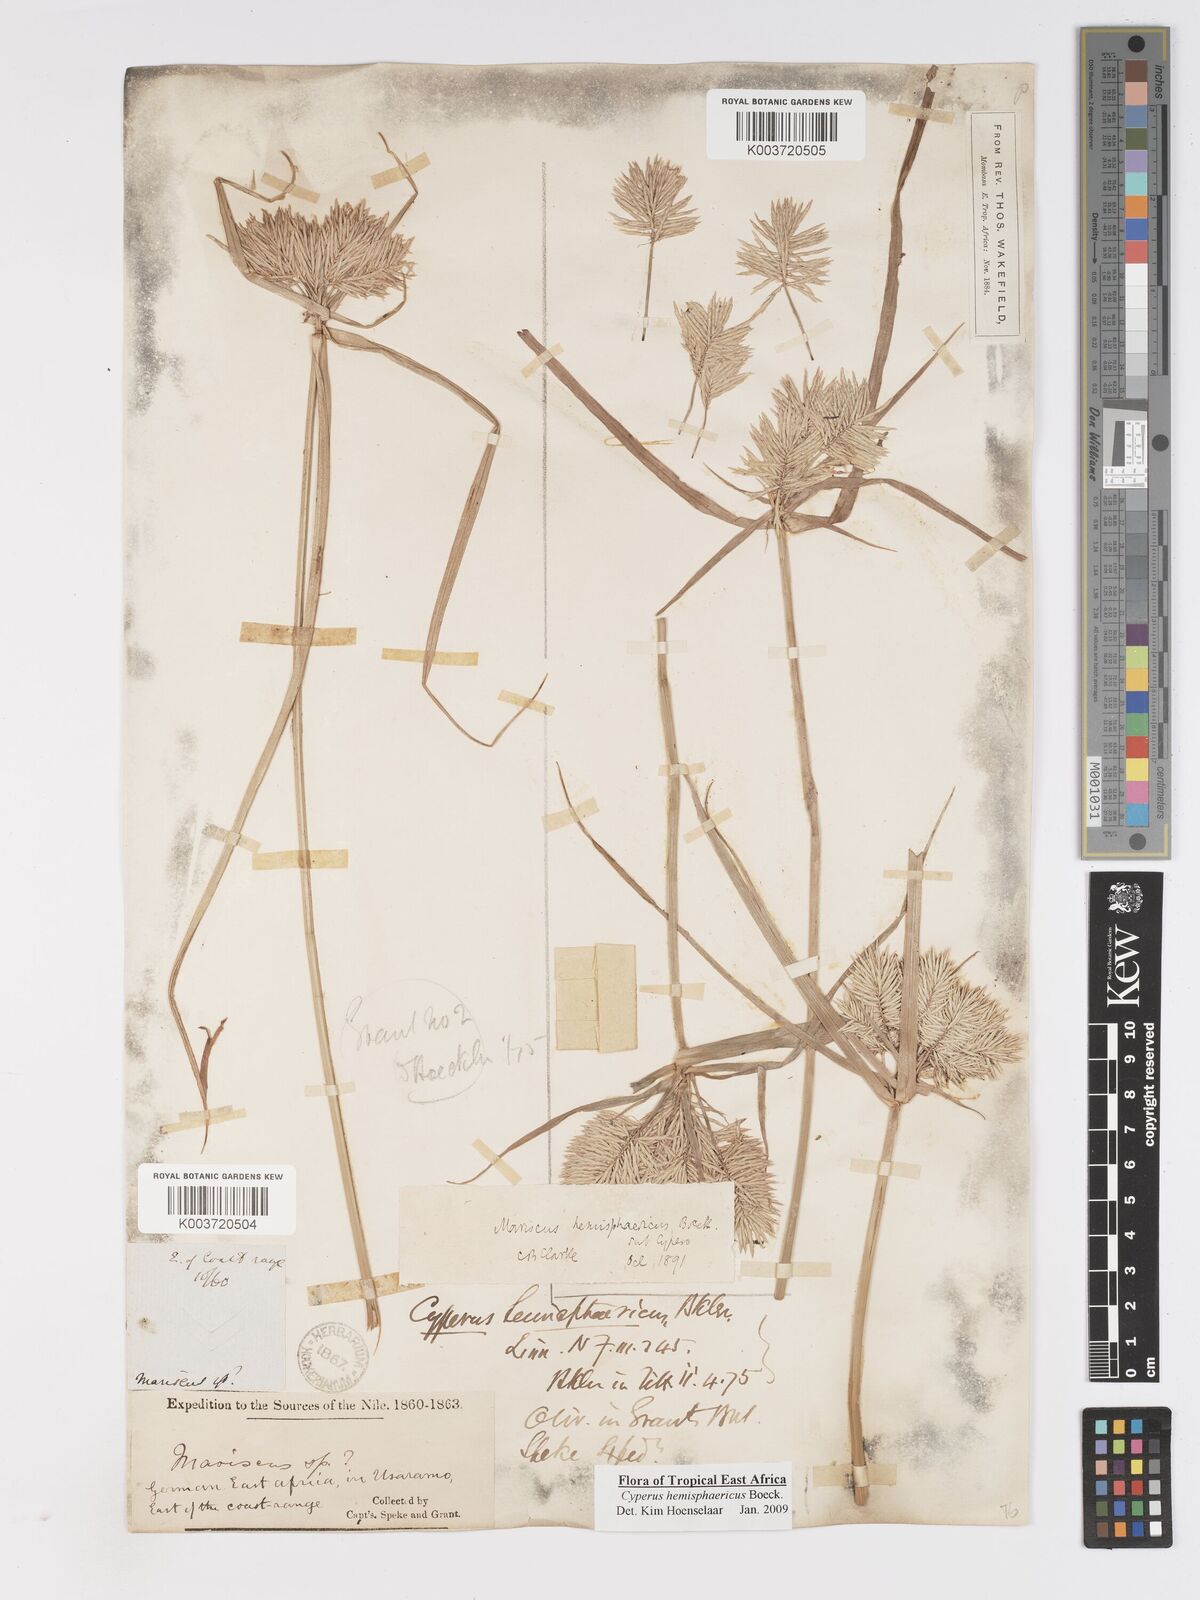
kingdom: Plantae
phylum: Tracheophyta
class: Liliopsida
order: Poales
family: Cyperaceae
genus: Cyperus
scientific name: Cyperus hemisphaericus
